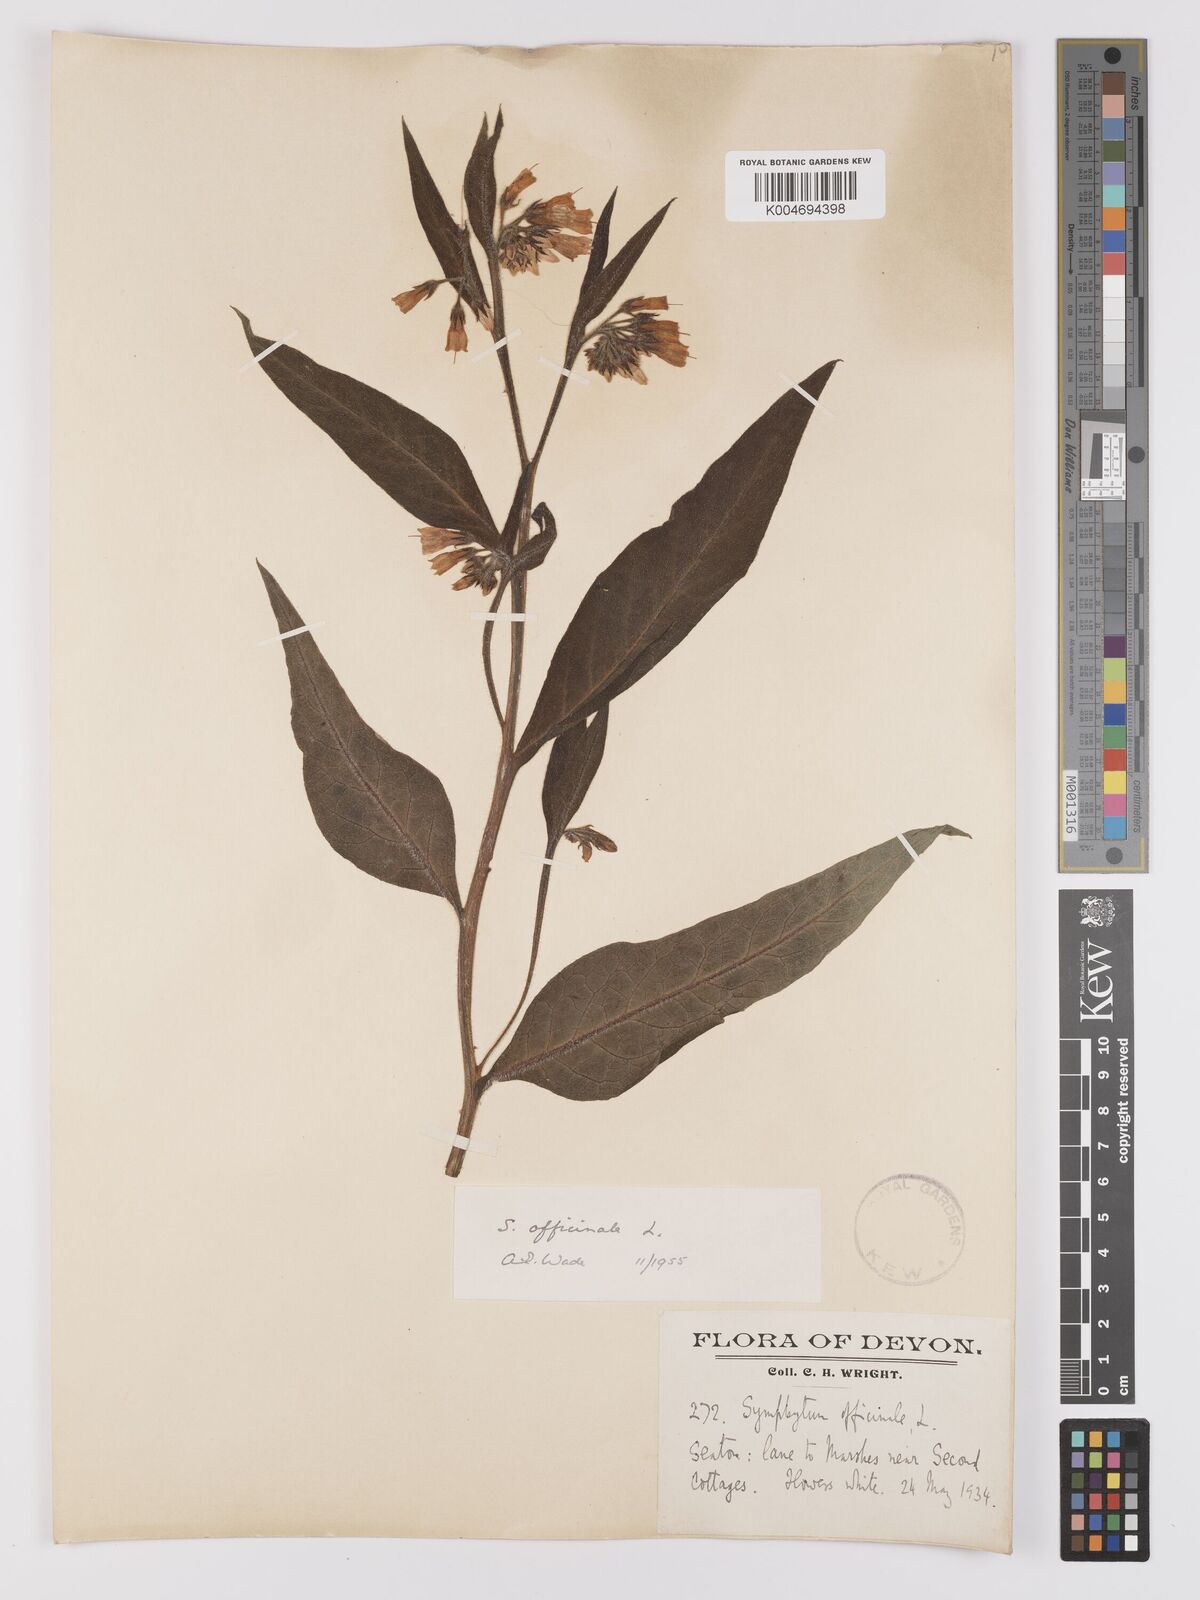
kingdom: Plantae
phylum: Tracheophyta
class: Magnoliopsida
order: Boraginales
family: Boraginaceae
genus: Symphytum
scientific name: Symphytum officinale
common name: Common comfrey
